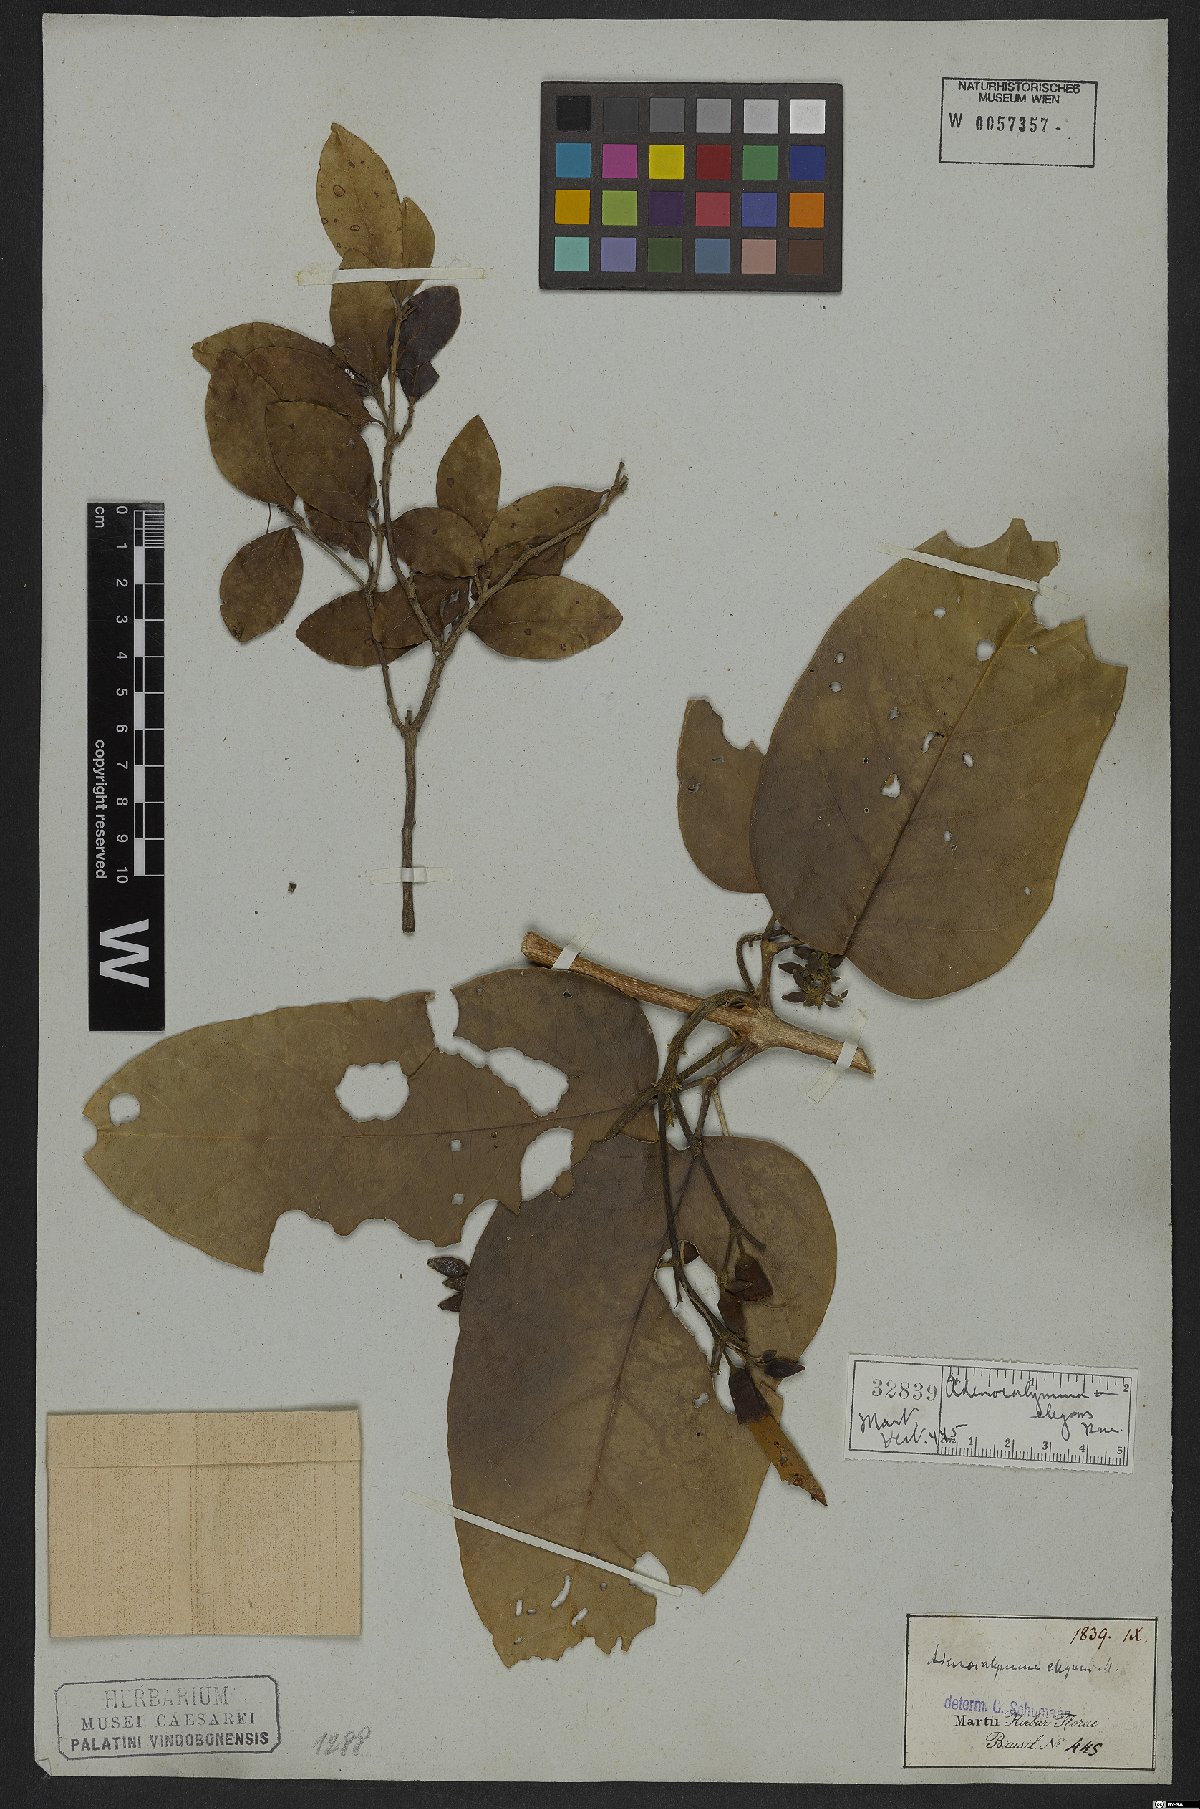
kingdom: Plantae
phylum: Tracheophyta
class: Magnoliopsida
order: Lamiales
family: Bignoniaceae
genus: Fridericia
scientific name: Fridericia elegans
